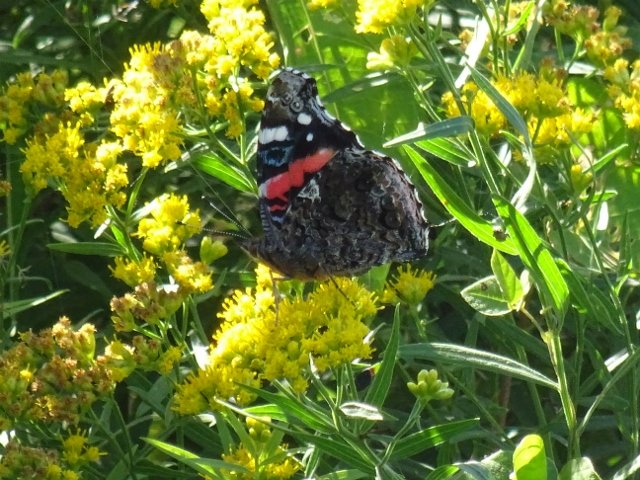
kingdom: Animalia
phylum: Arthropoda
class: Insecta
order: Lepidoptera
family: Nymphalidae
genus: Vanessa
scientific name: Vanessa atalanta
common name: Red Admiral
